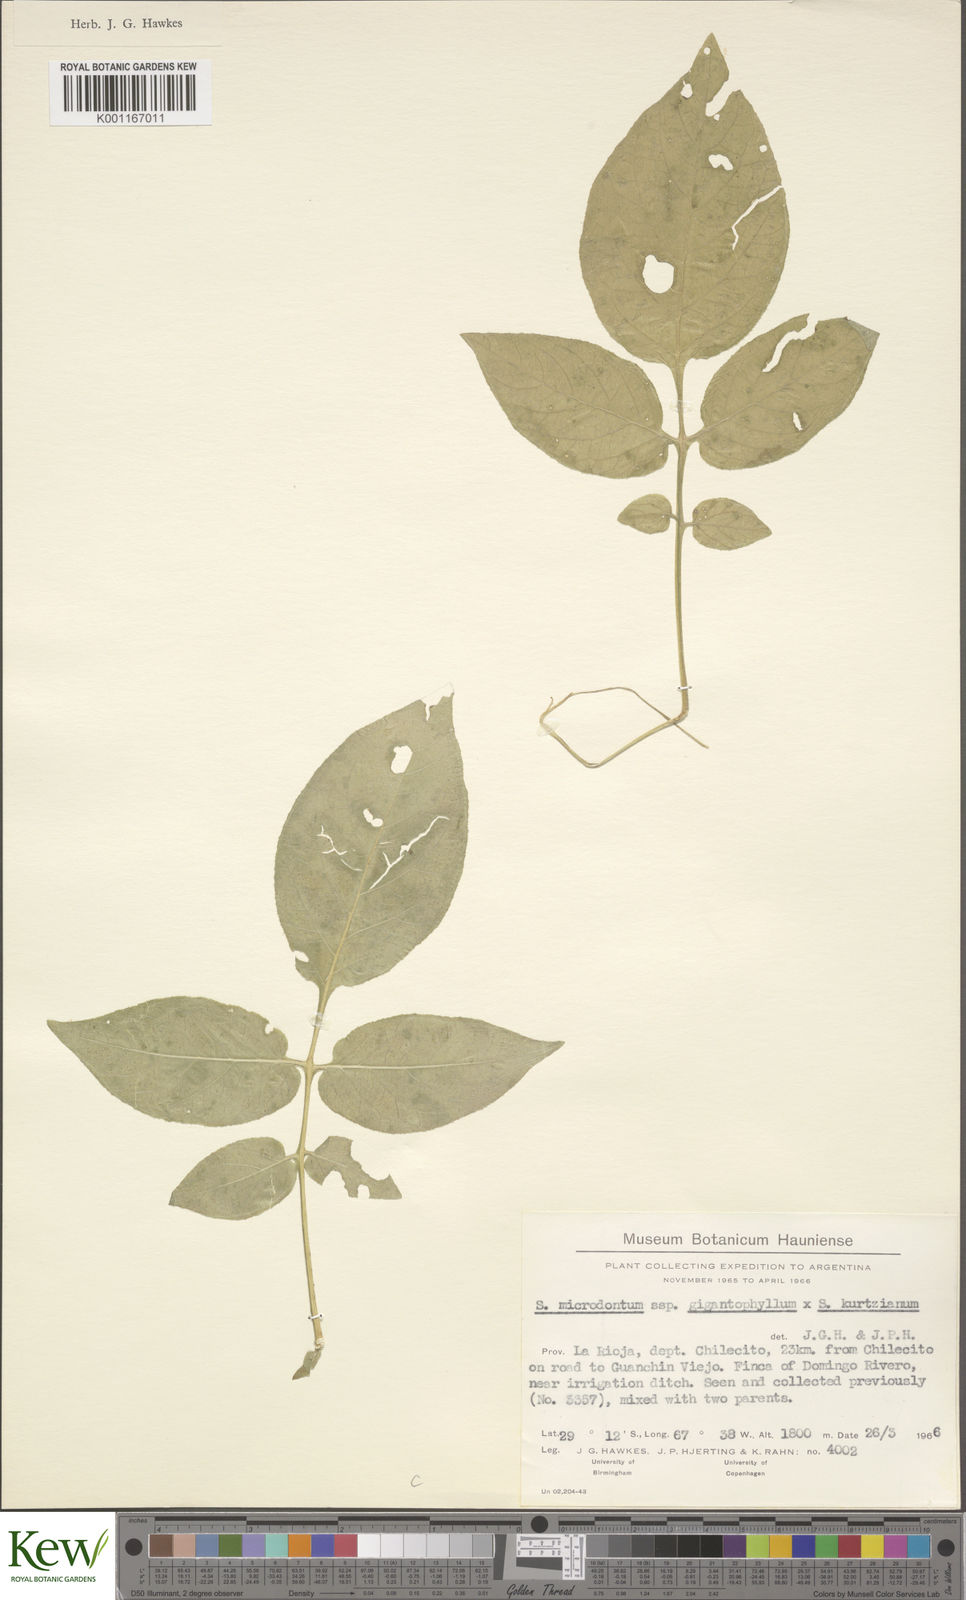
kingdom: Plantae
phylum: Tracheophyta
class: Magnoliopsida
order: Solanales
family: Solanaceae
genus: Solanum
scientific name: Solanum rechei
